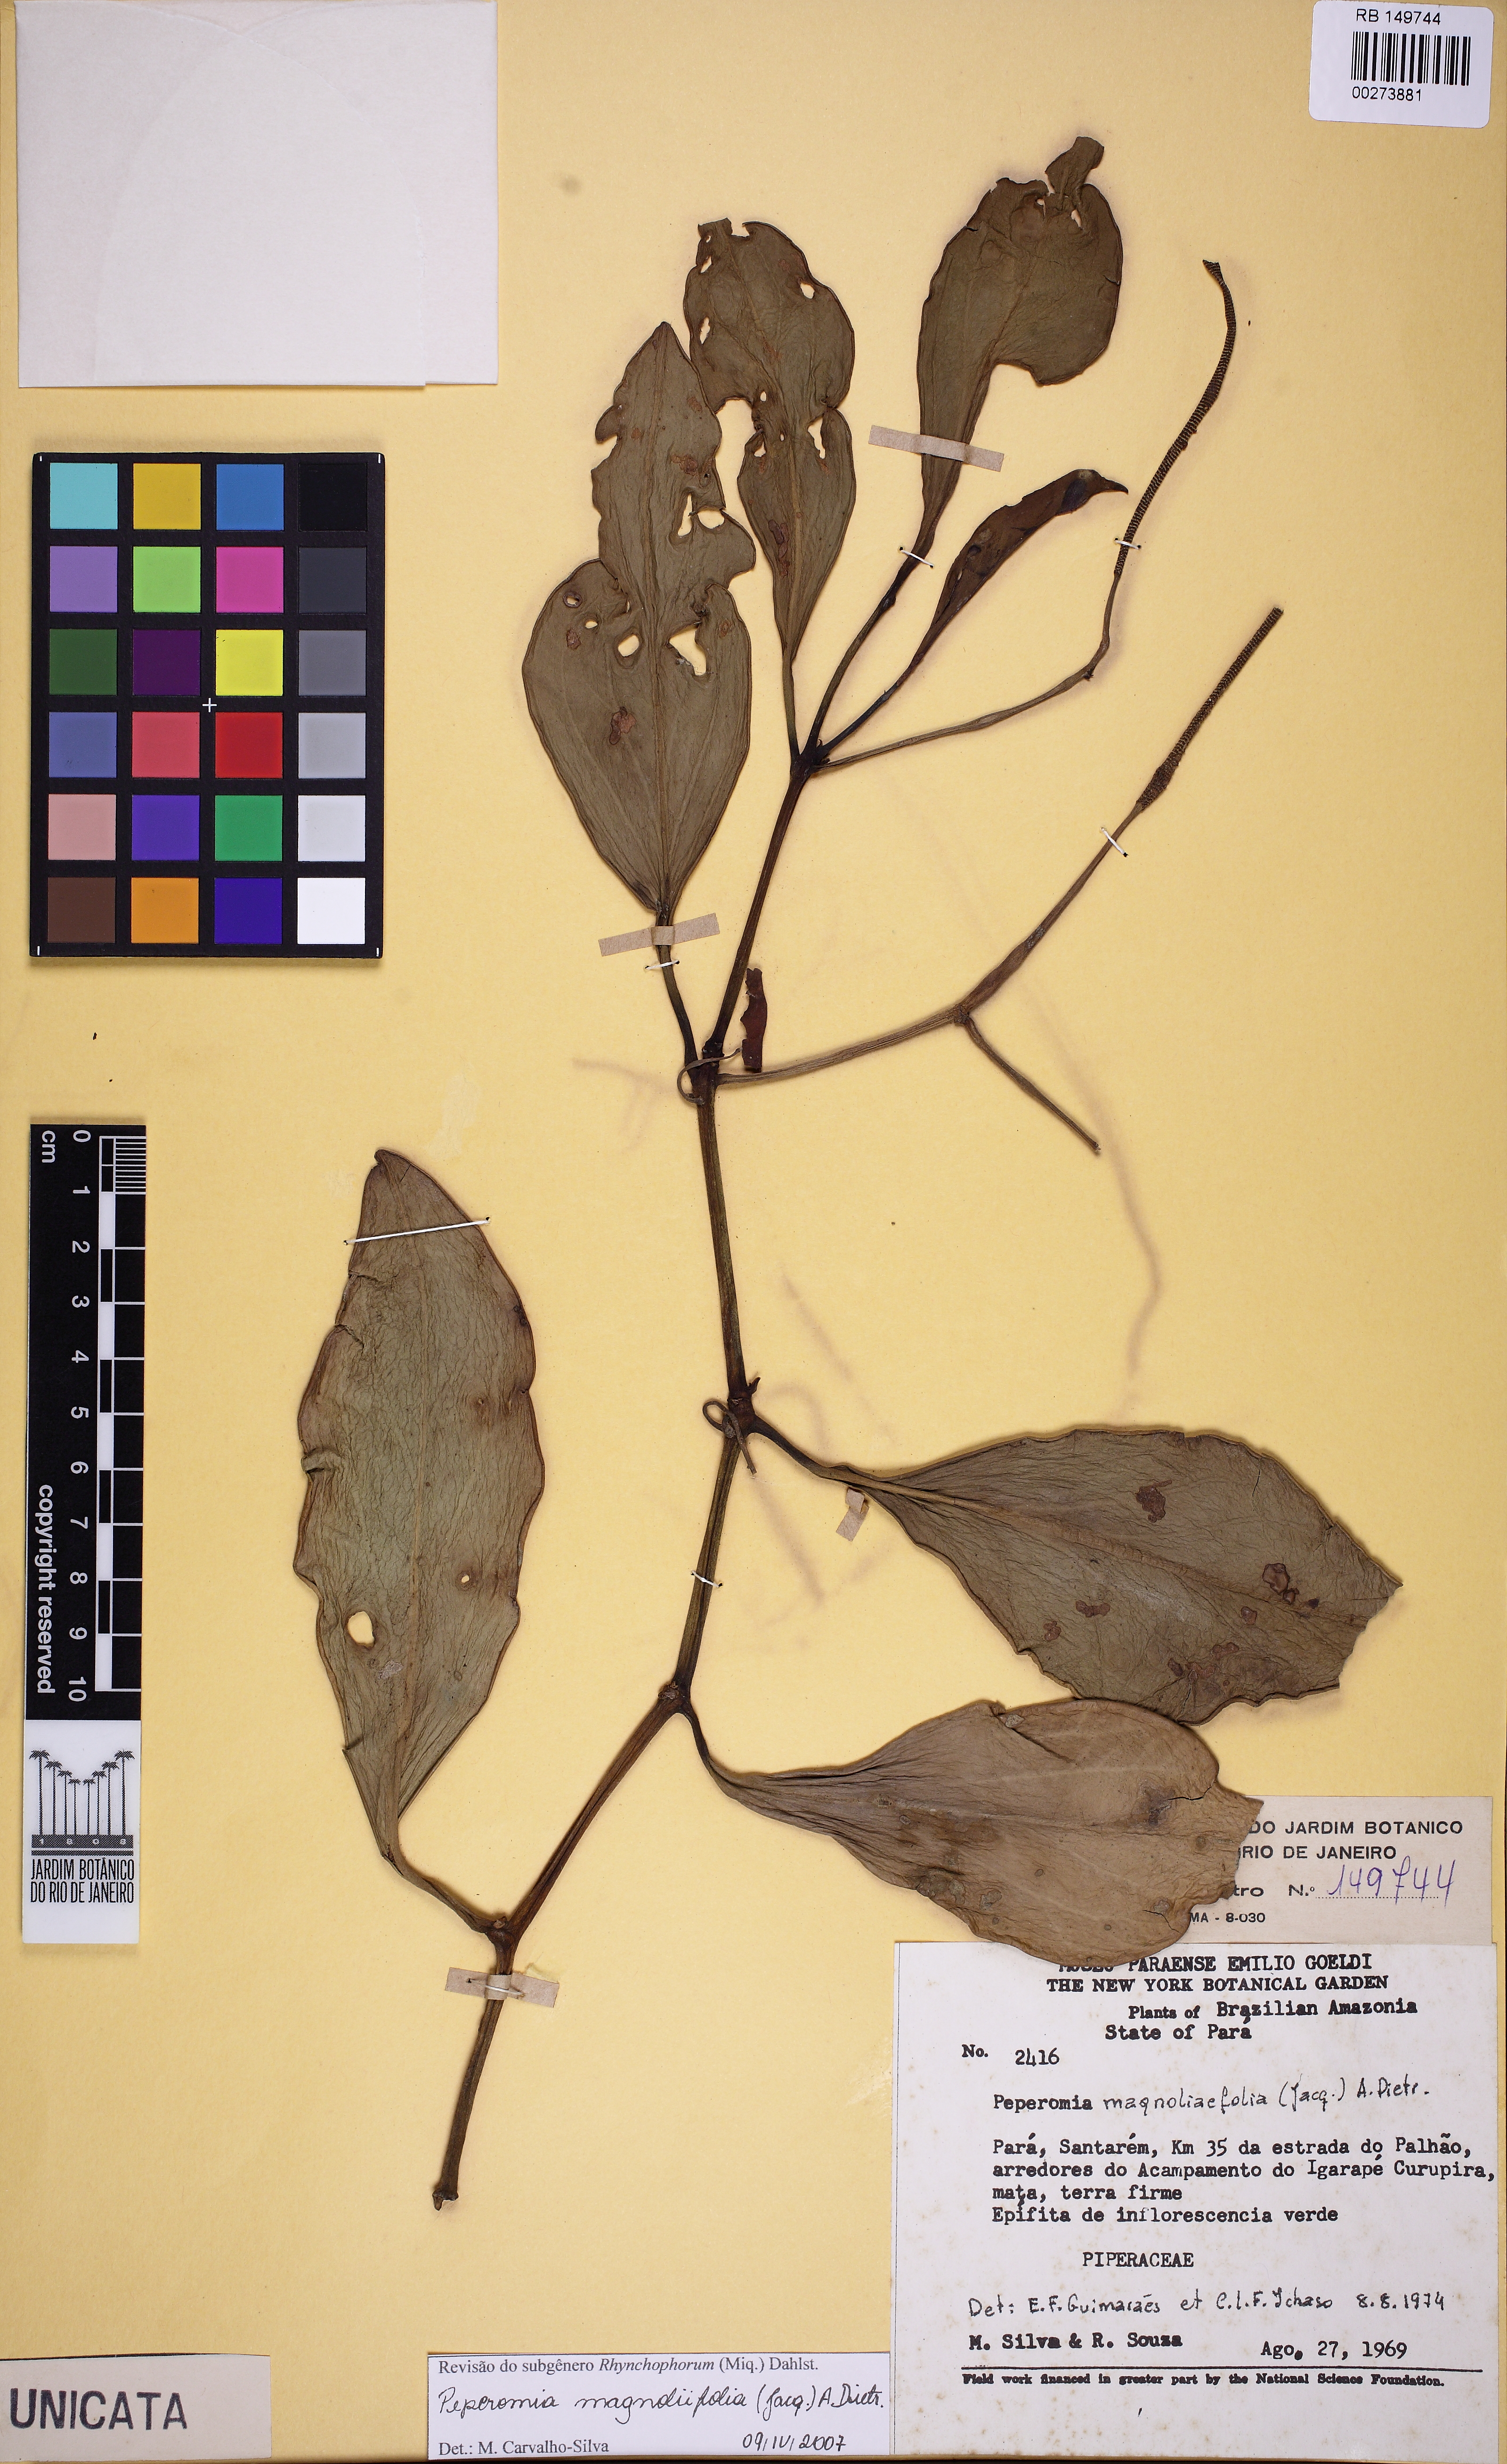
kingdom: Plantae
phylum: Tracheophyta
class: Magnoliopsida
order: Piperales
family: Piperaceae
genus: Peperomia
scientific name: Peperomia magnoliifolia
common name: Spoonleaf peperomia
